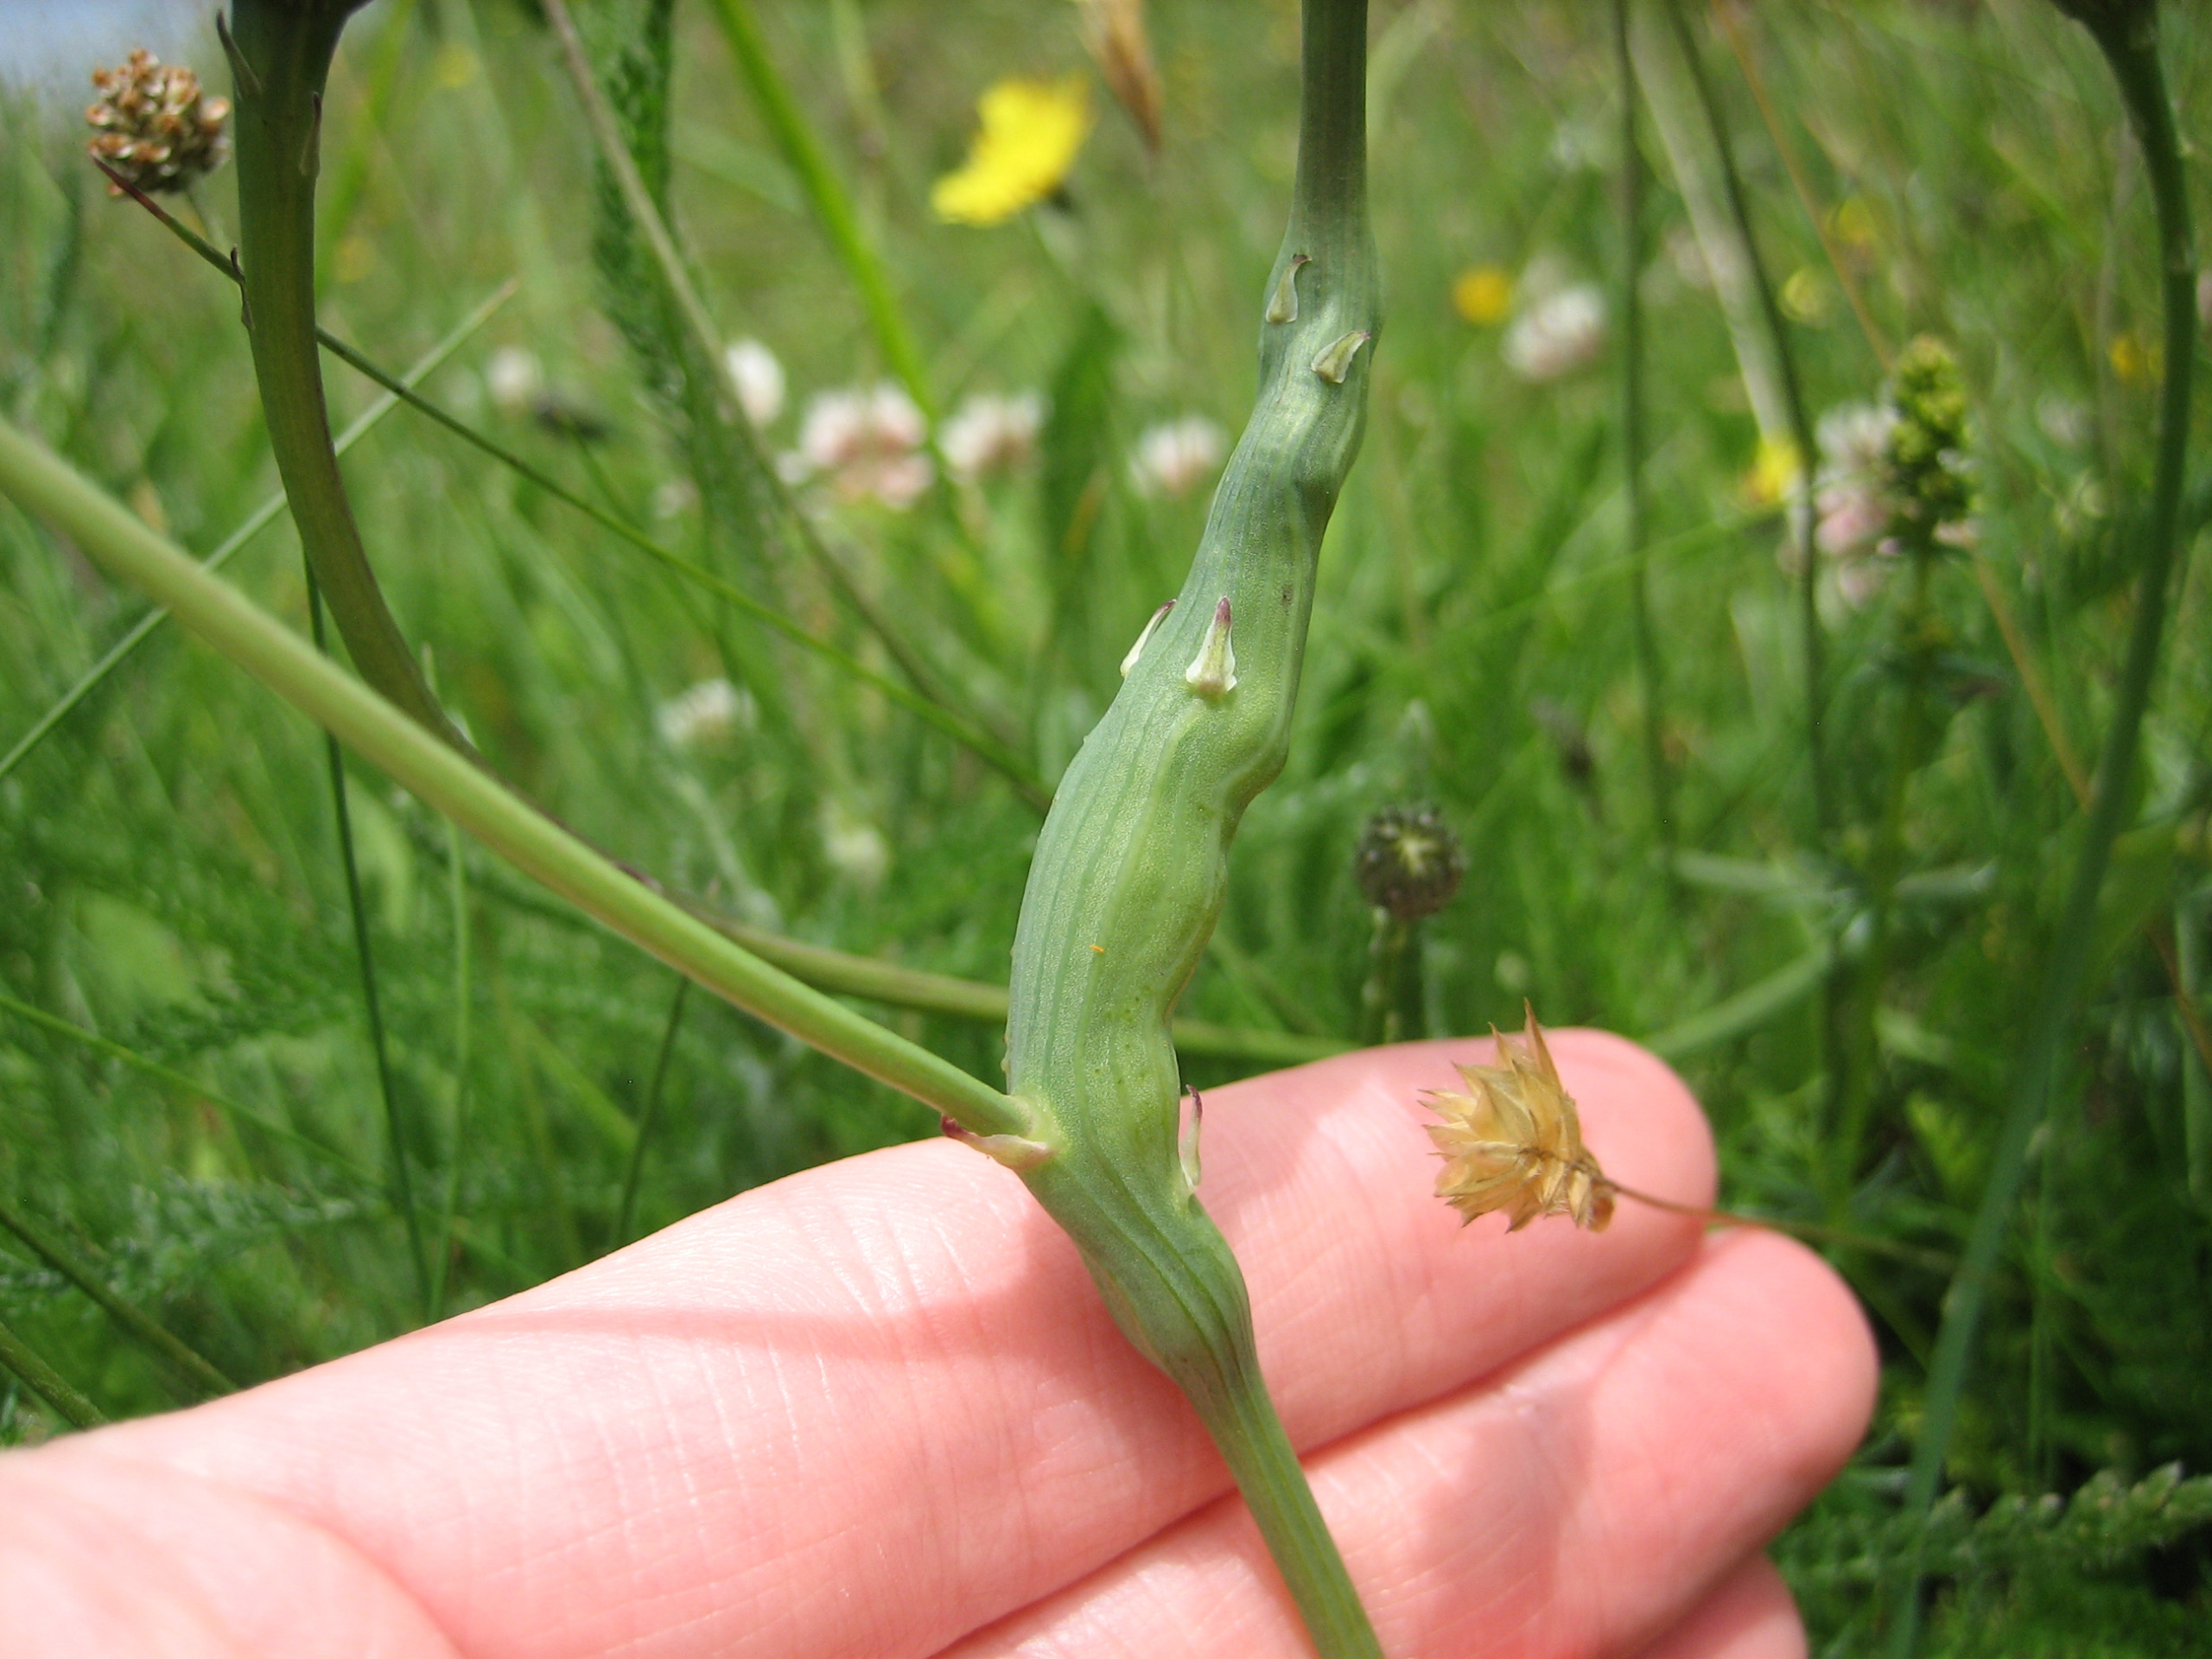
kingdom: Animalia
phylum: Arthropoda
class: Insecta
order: Hymenoptera
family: Cynipidae
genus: Phanacis
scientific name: Phanacis hypochoeridis
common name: Kongepengalhveps
